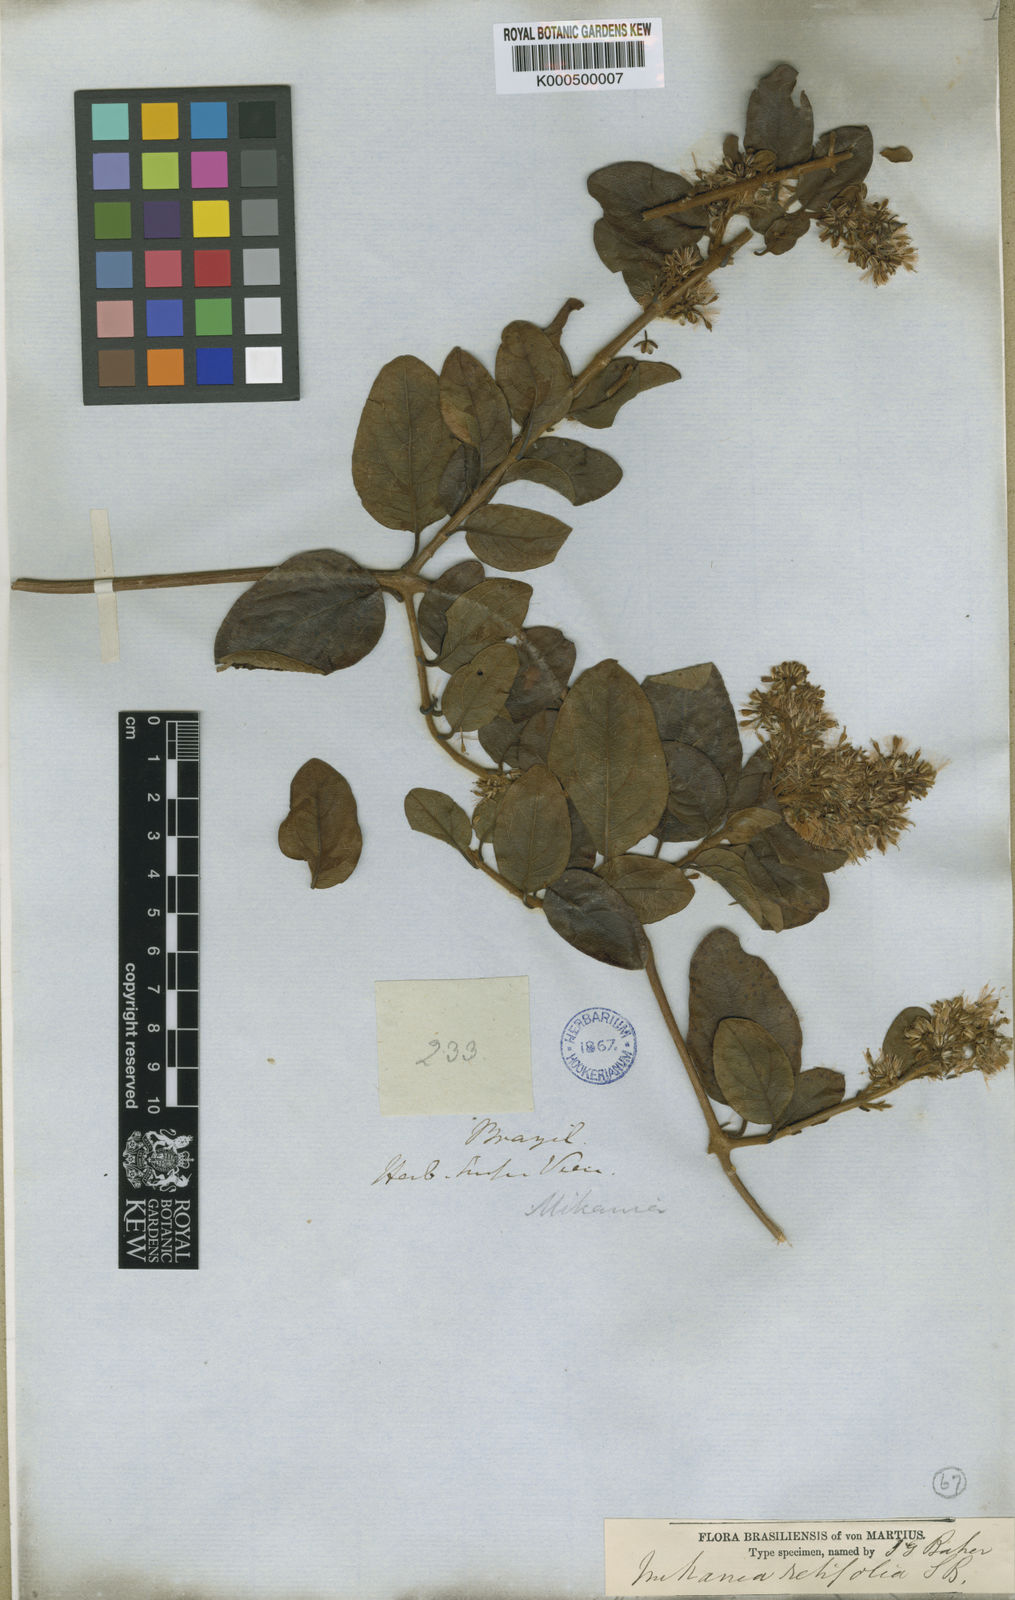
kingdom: Plantae
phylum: Tracheophyta
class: Magnoliopsida
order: Asterales
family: Asteraceae
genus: Mikania
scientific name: Mikania retifolia
